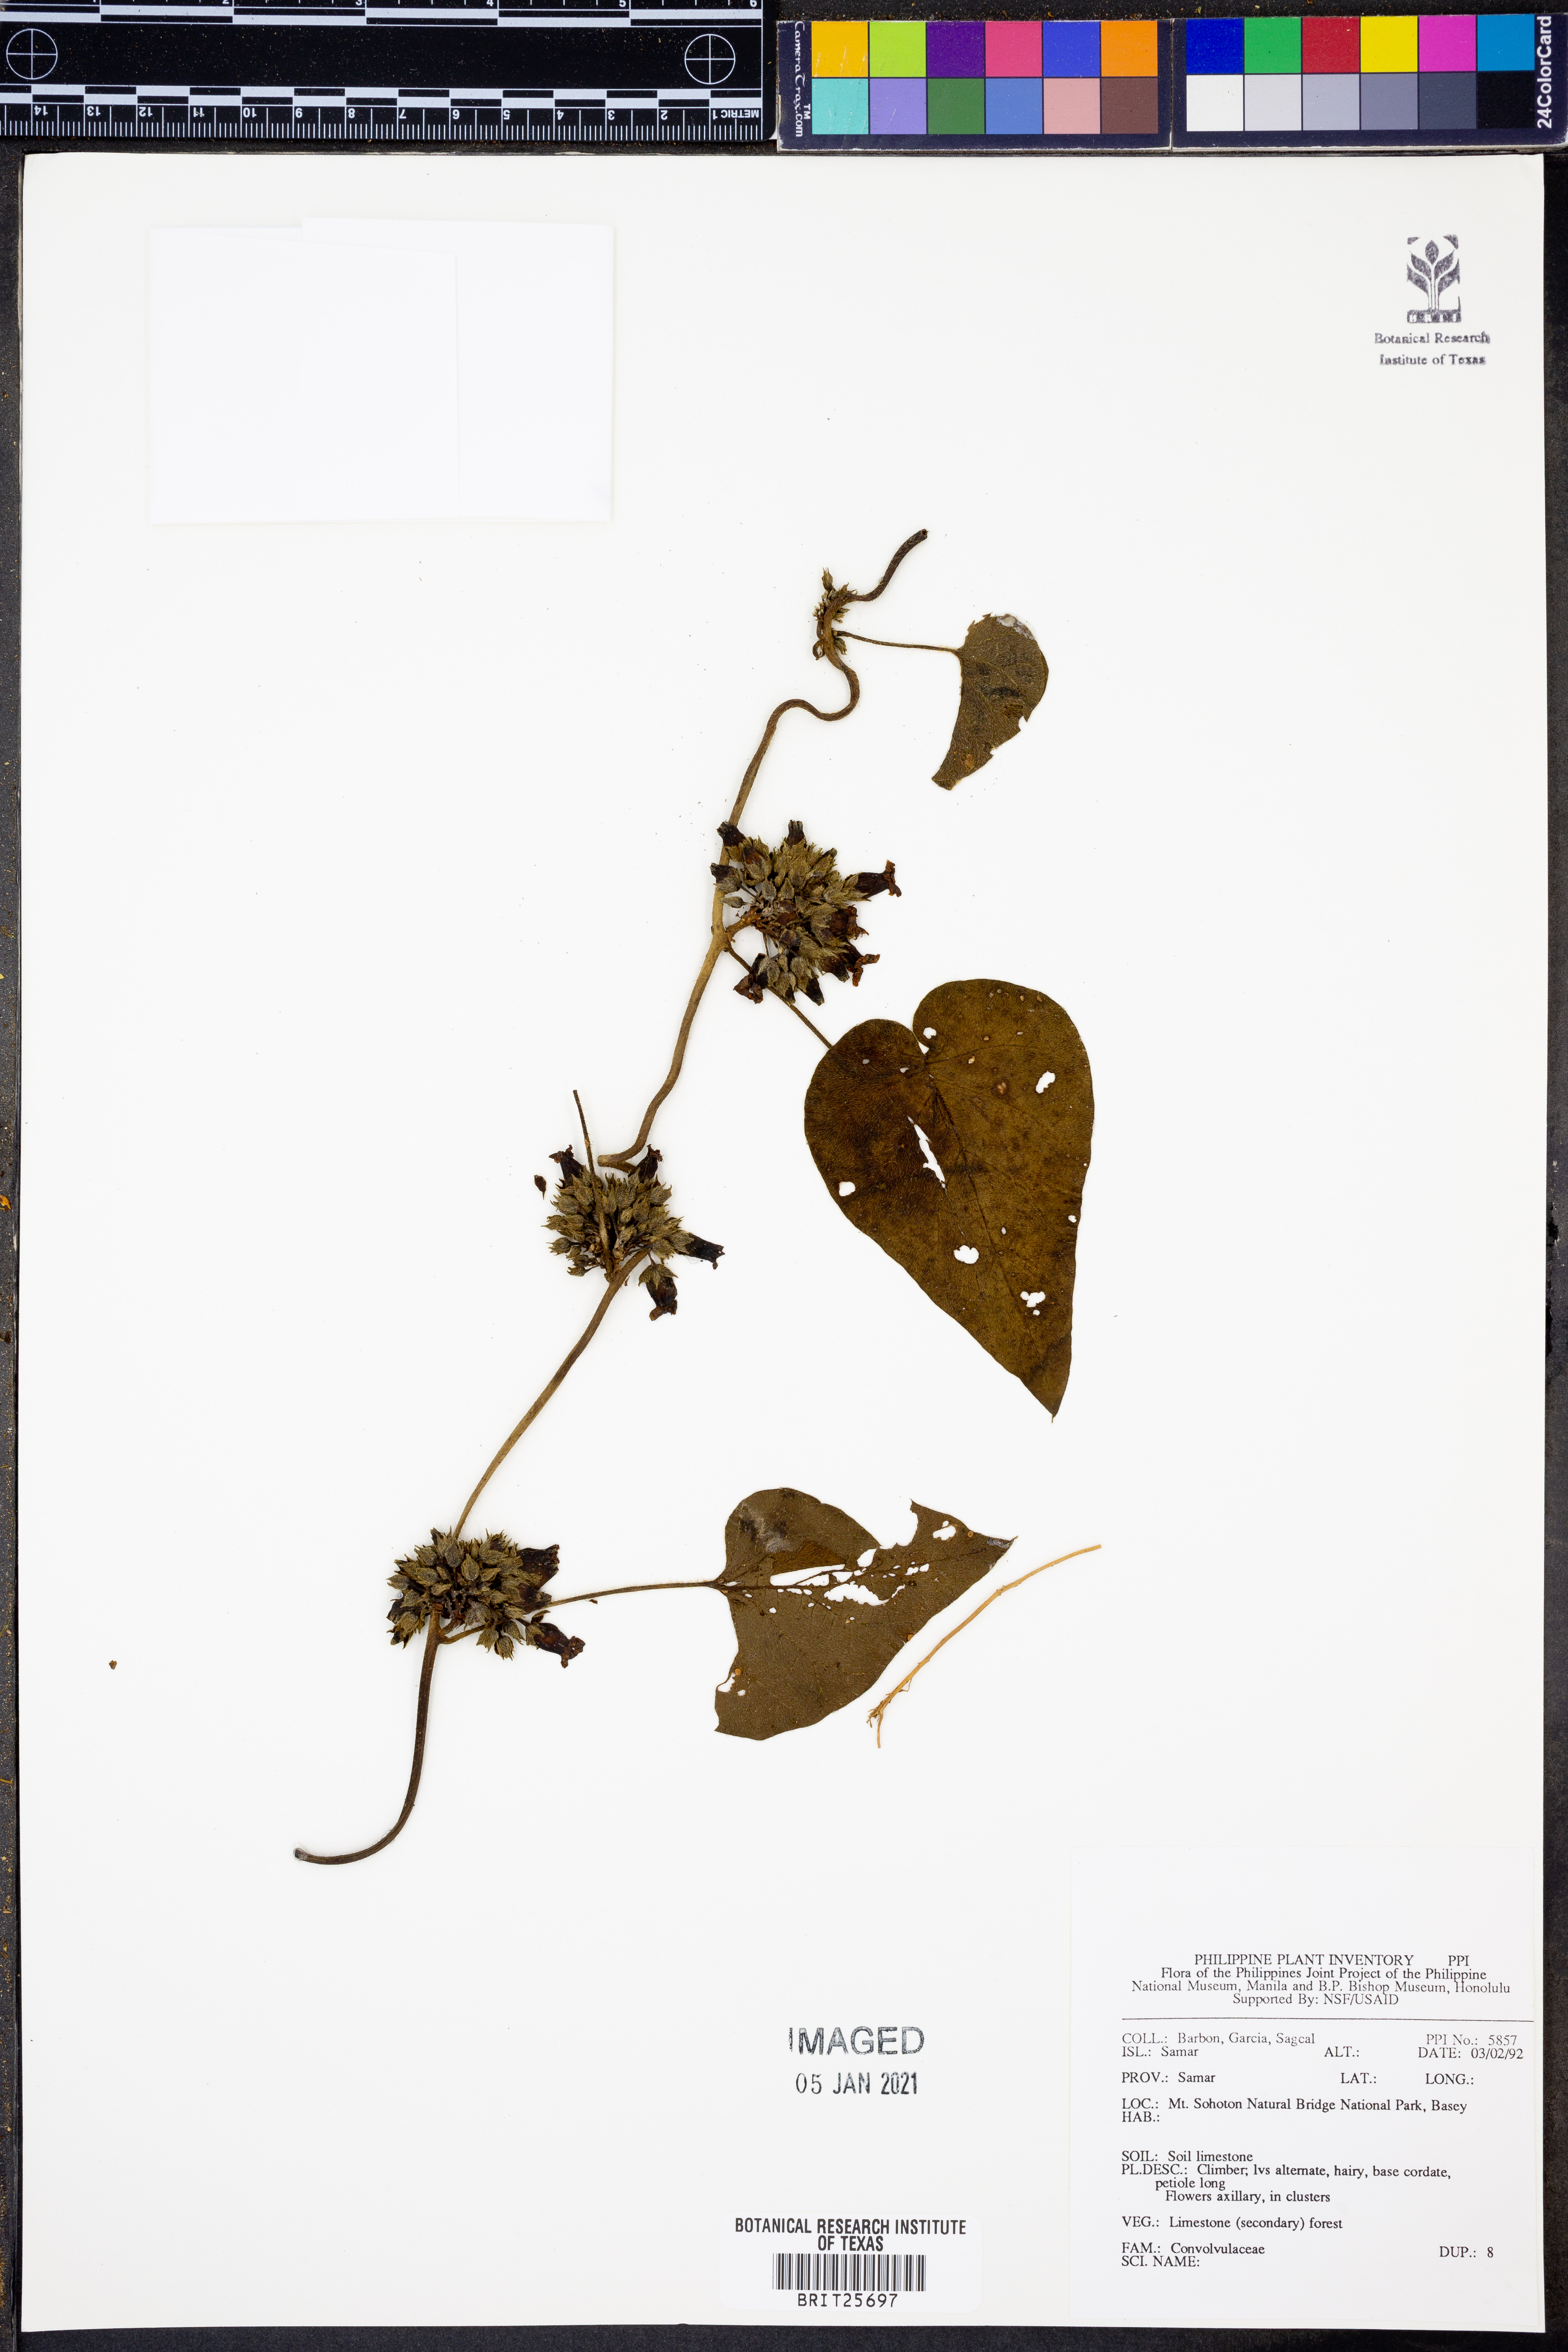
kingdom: Plantae
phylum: Tracheophyta
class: Magnoliopsida
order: Solanales
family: Convolvulaceae
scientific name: Convolvulaceae
